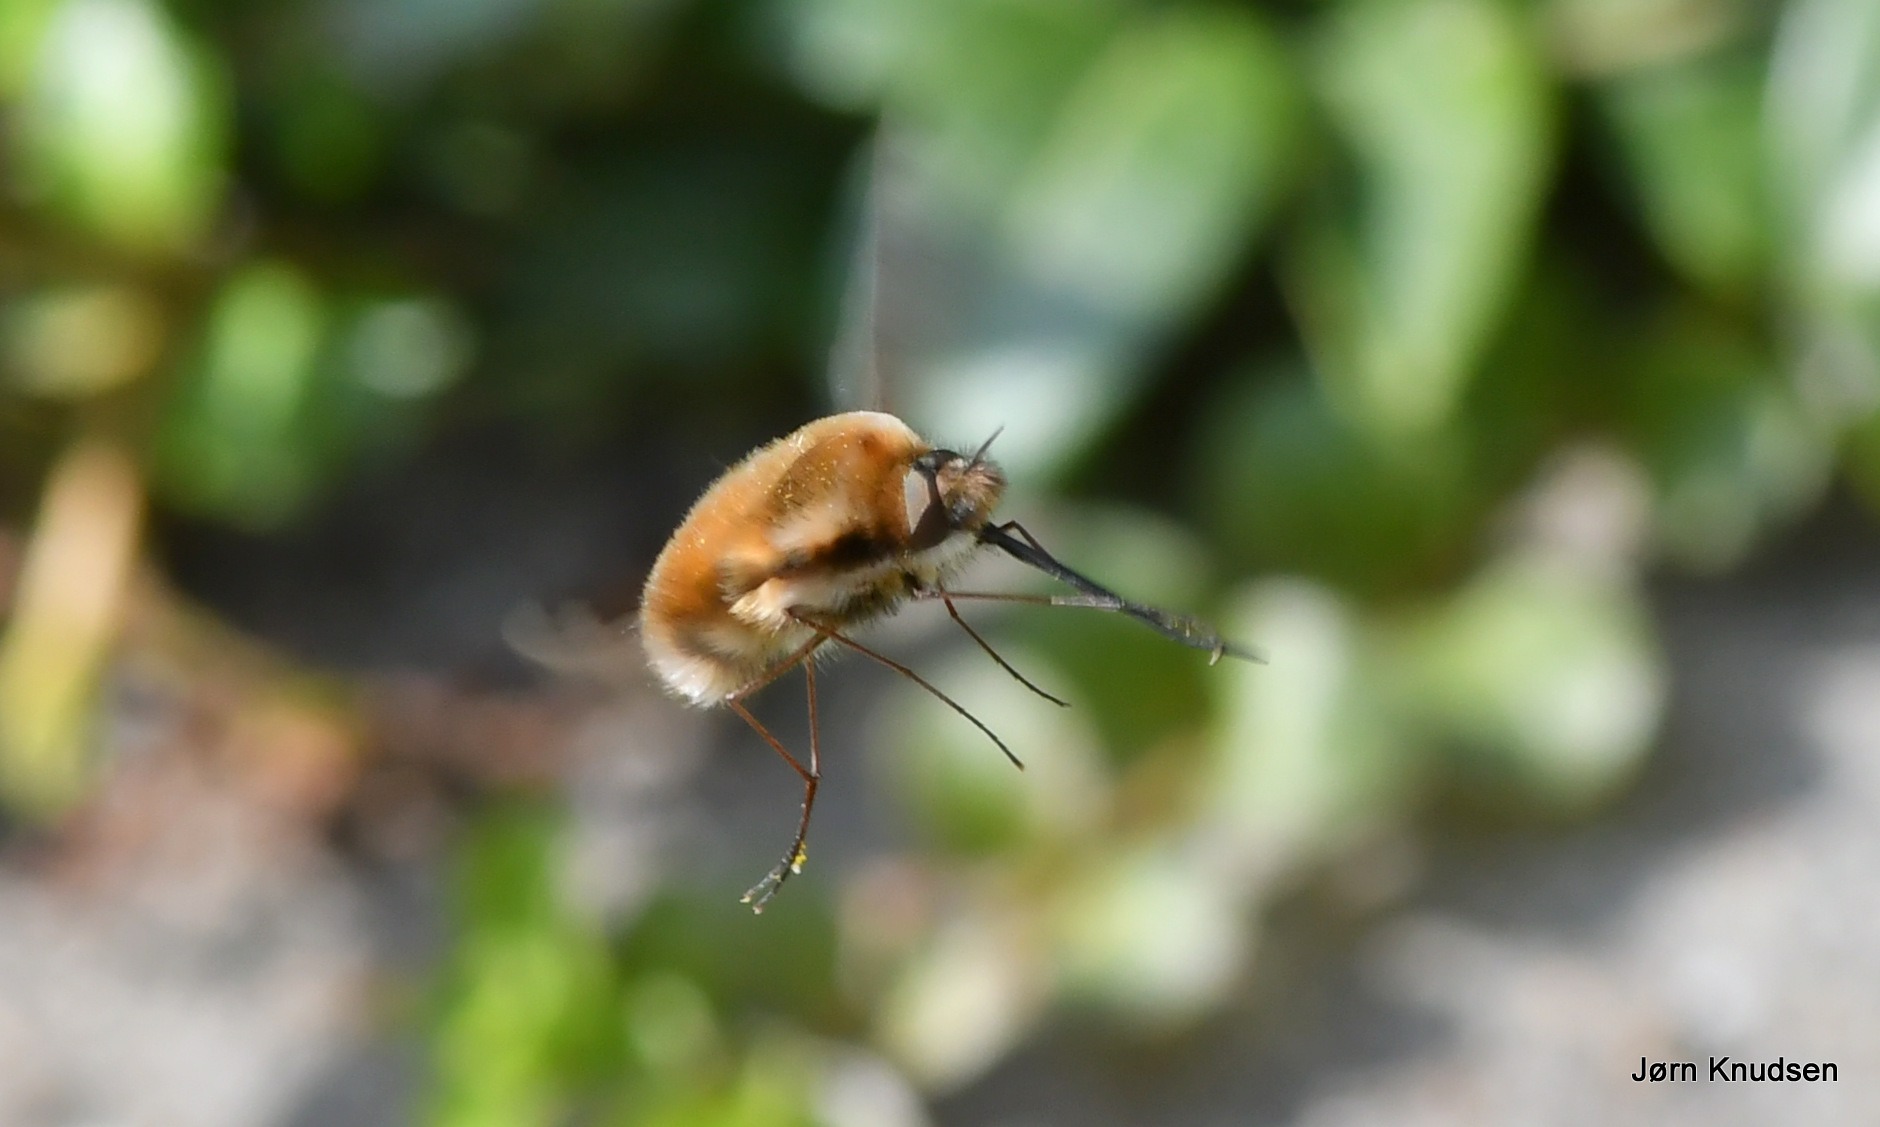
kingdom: Animalia
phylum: Arthropoda
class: Insecta
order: Diptera
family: Bombyliidae
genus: Bombylius
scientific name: Bombylius major
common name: Stor humleflue
